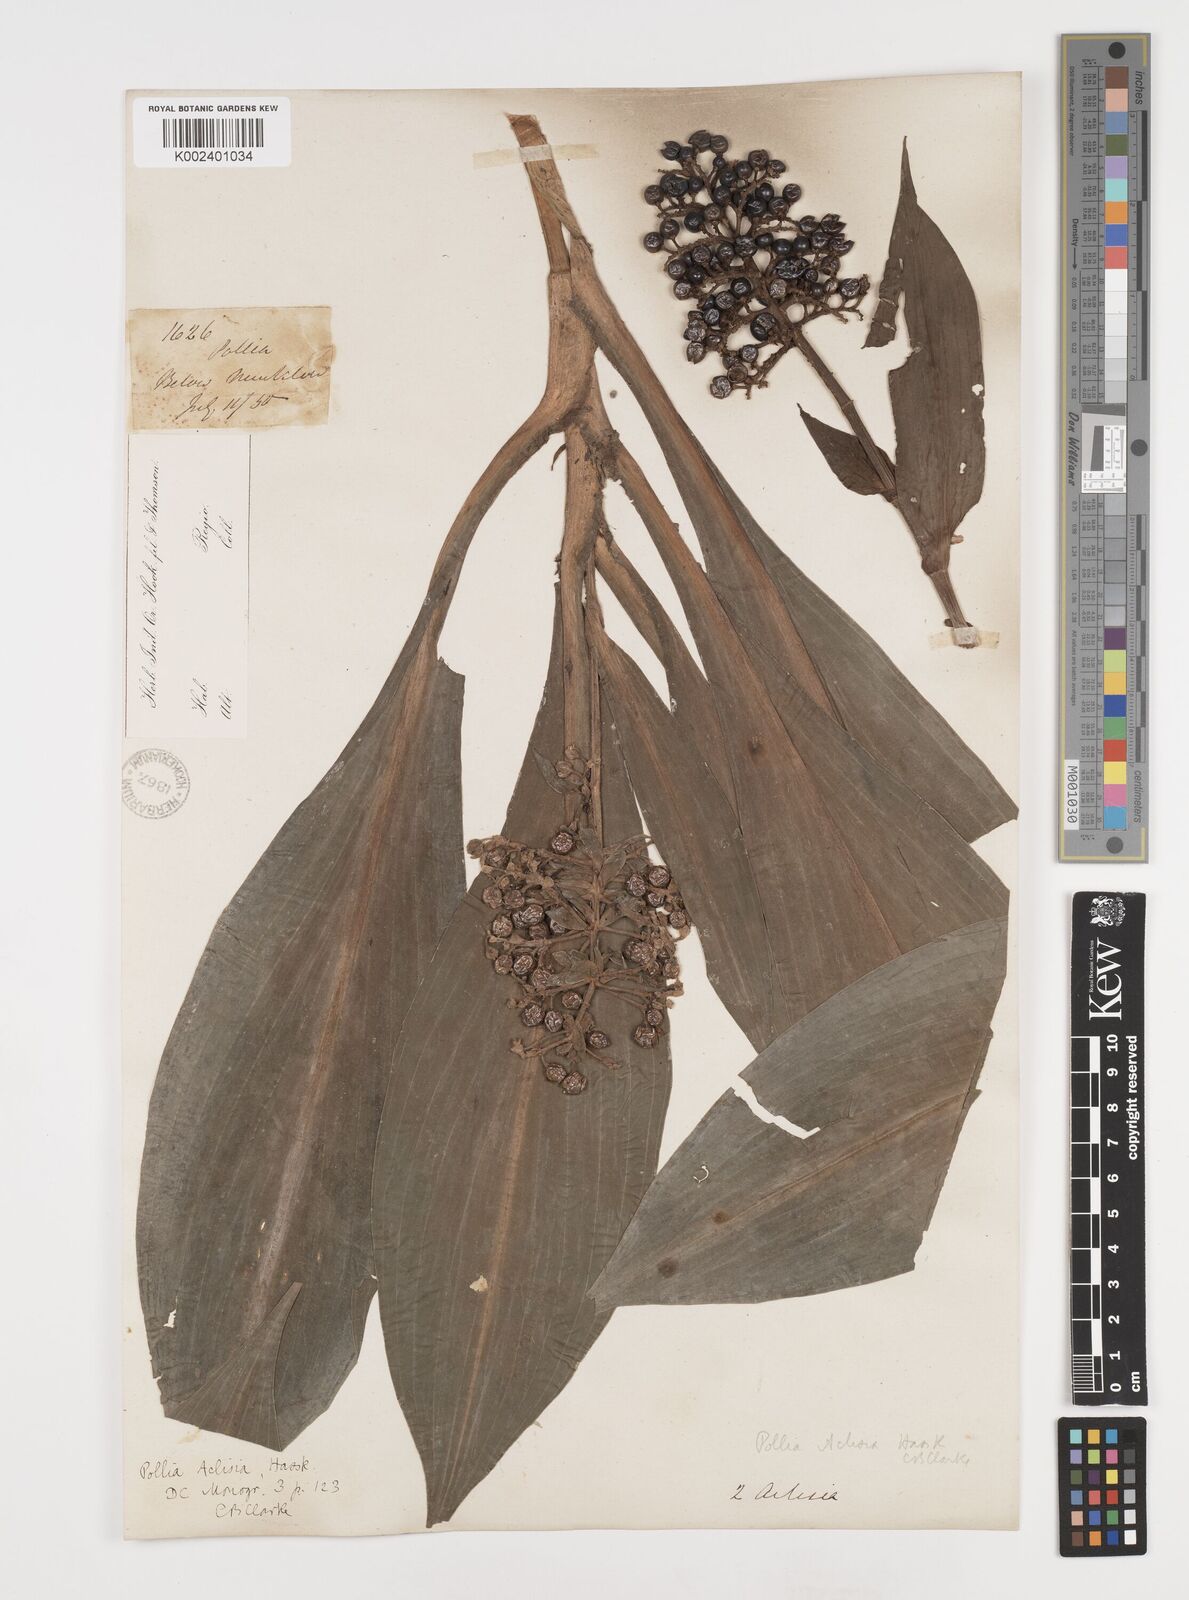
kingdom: Plantae
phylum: Tracheophyta
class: Liliopsida
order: Commelinales
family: Commelinaceae
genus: Pollia
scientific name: Pollia hasskarlii
